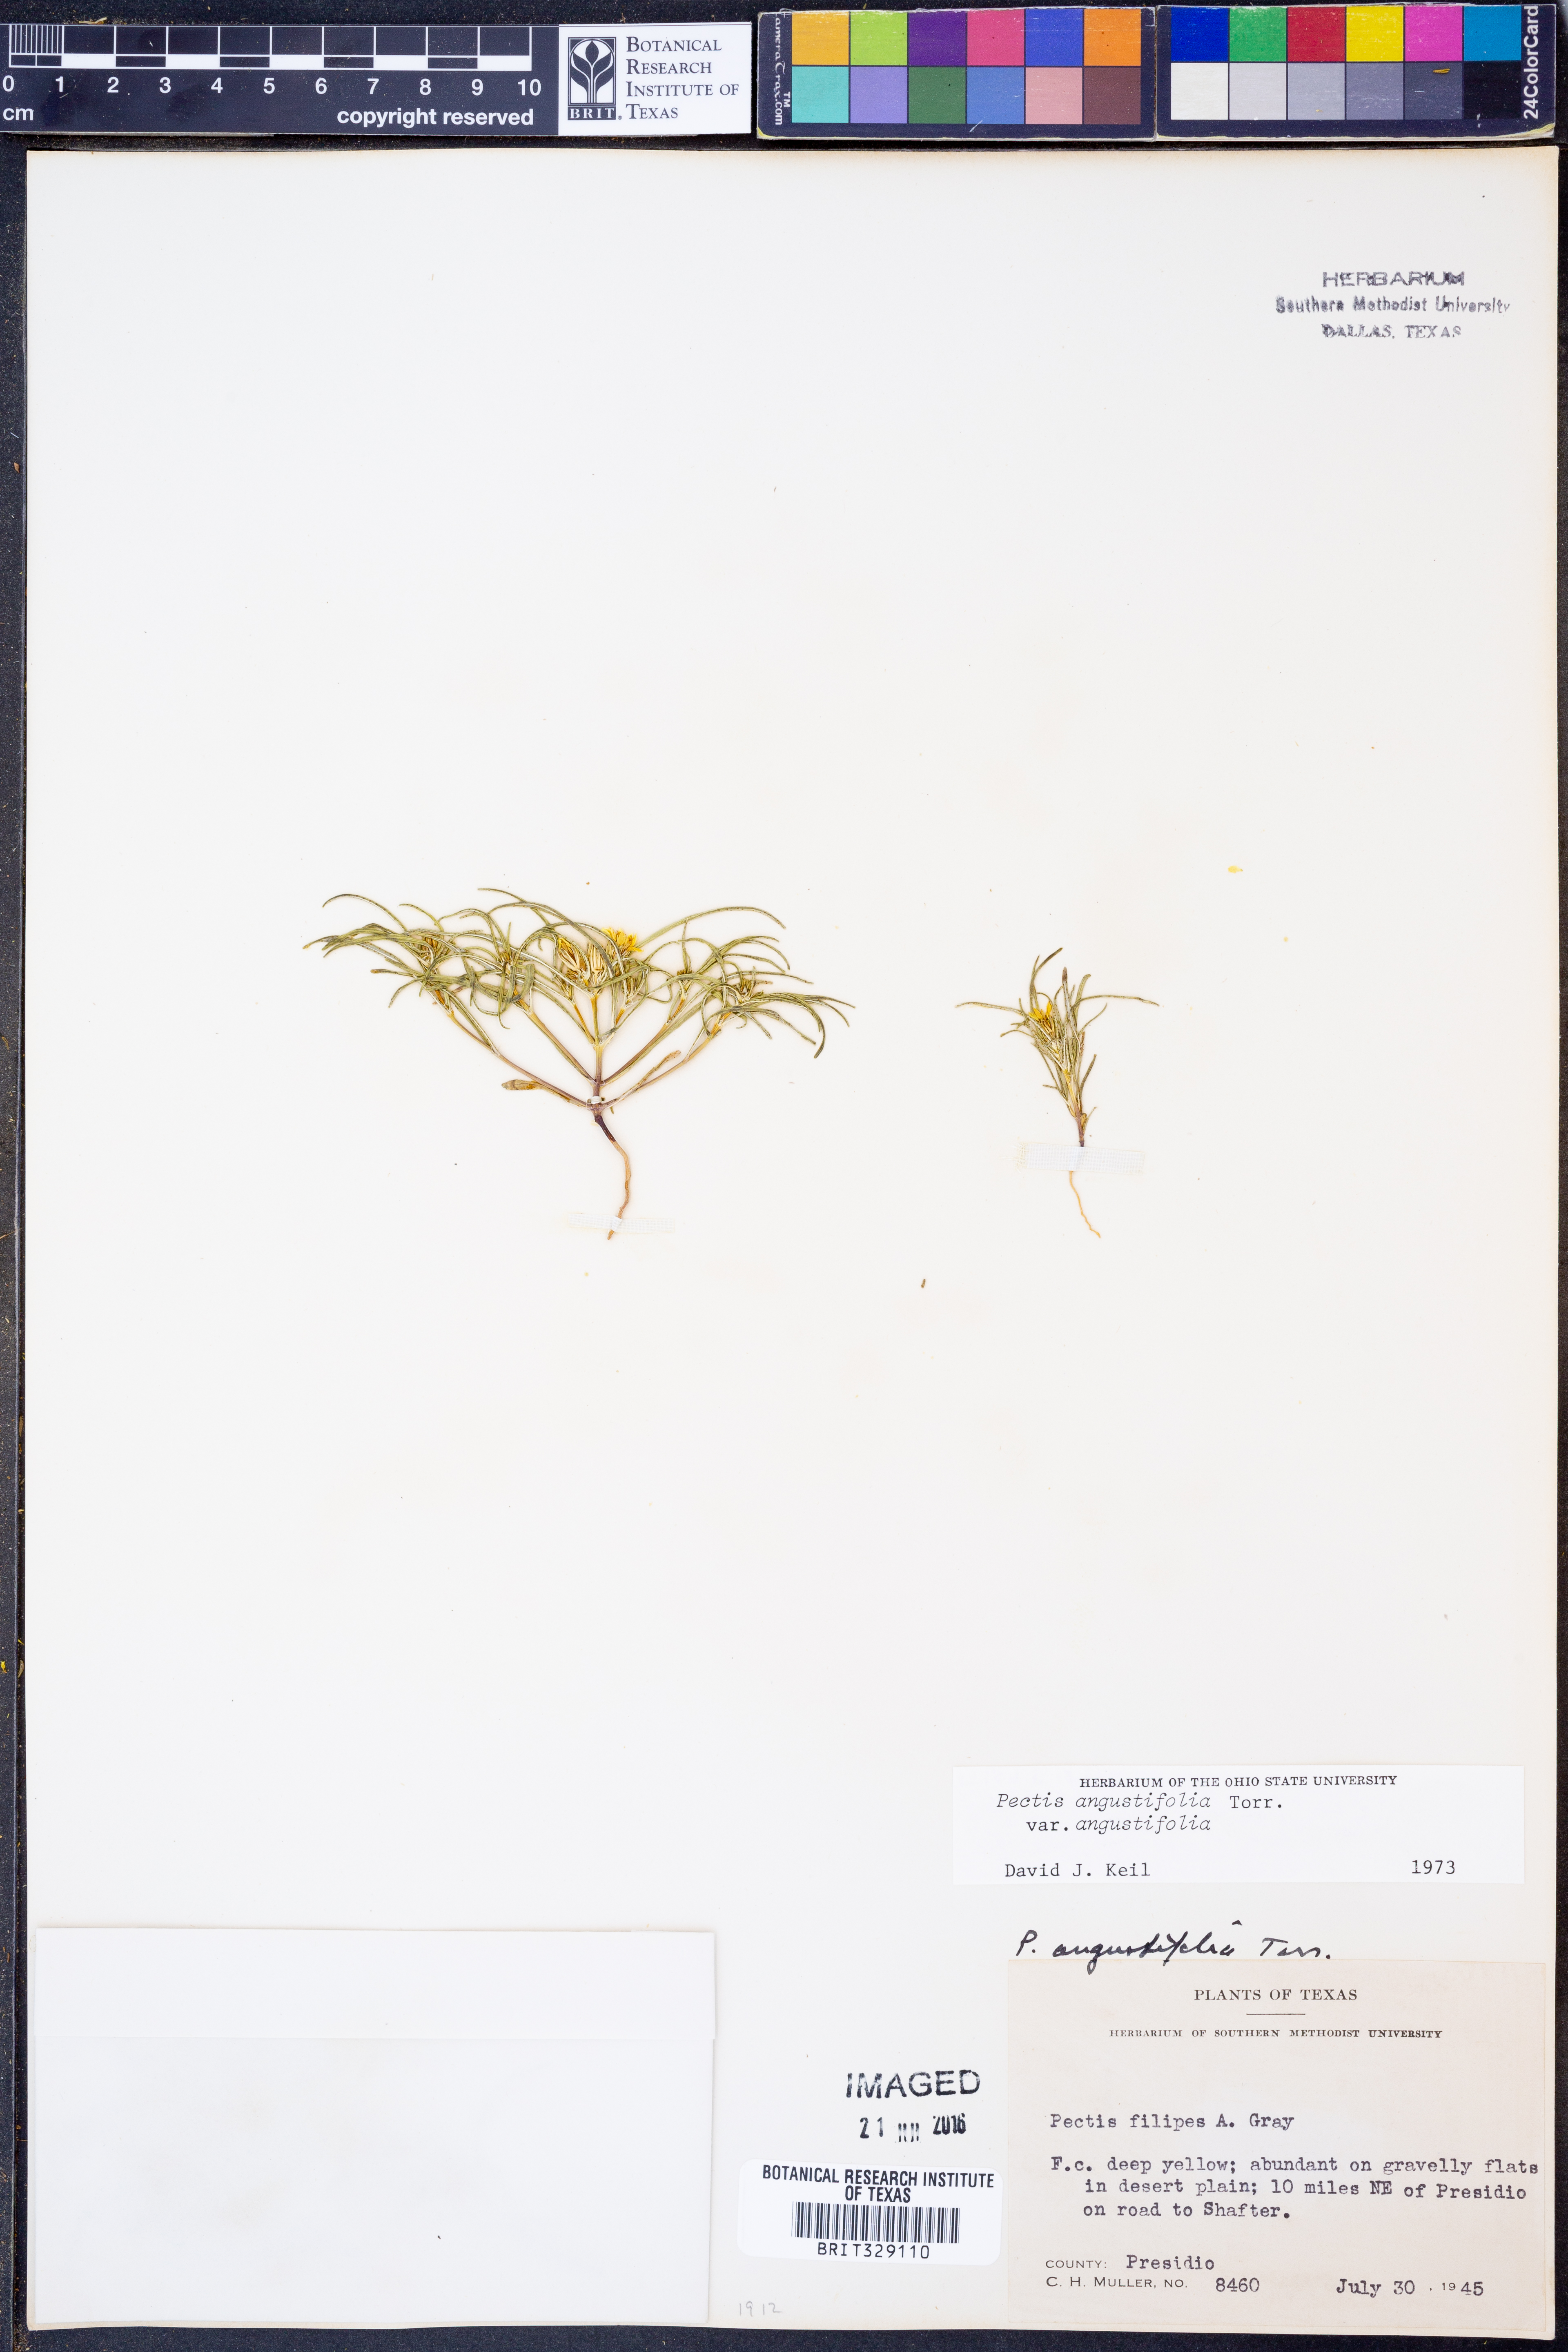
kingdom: Plantae
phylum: Tracheophyta
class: Magnoliopsida
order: Asterales
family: Asteraceae
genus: Pectis
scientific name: Pectis angustifolia
